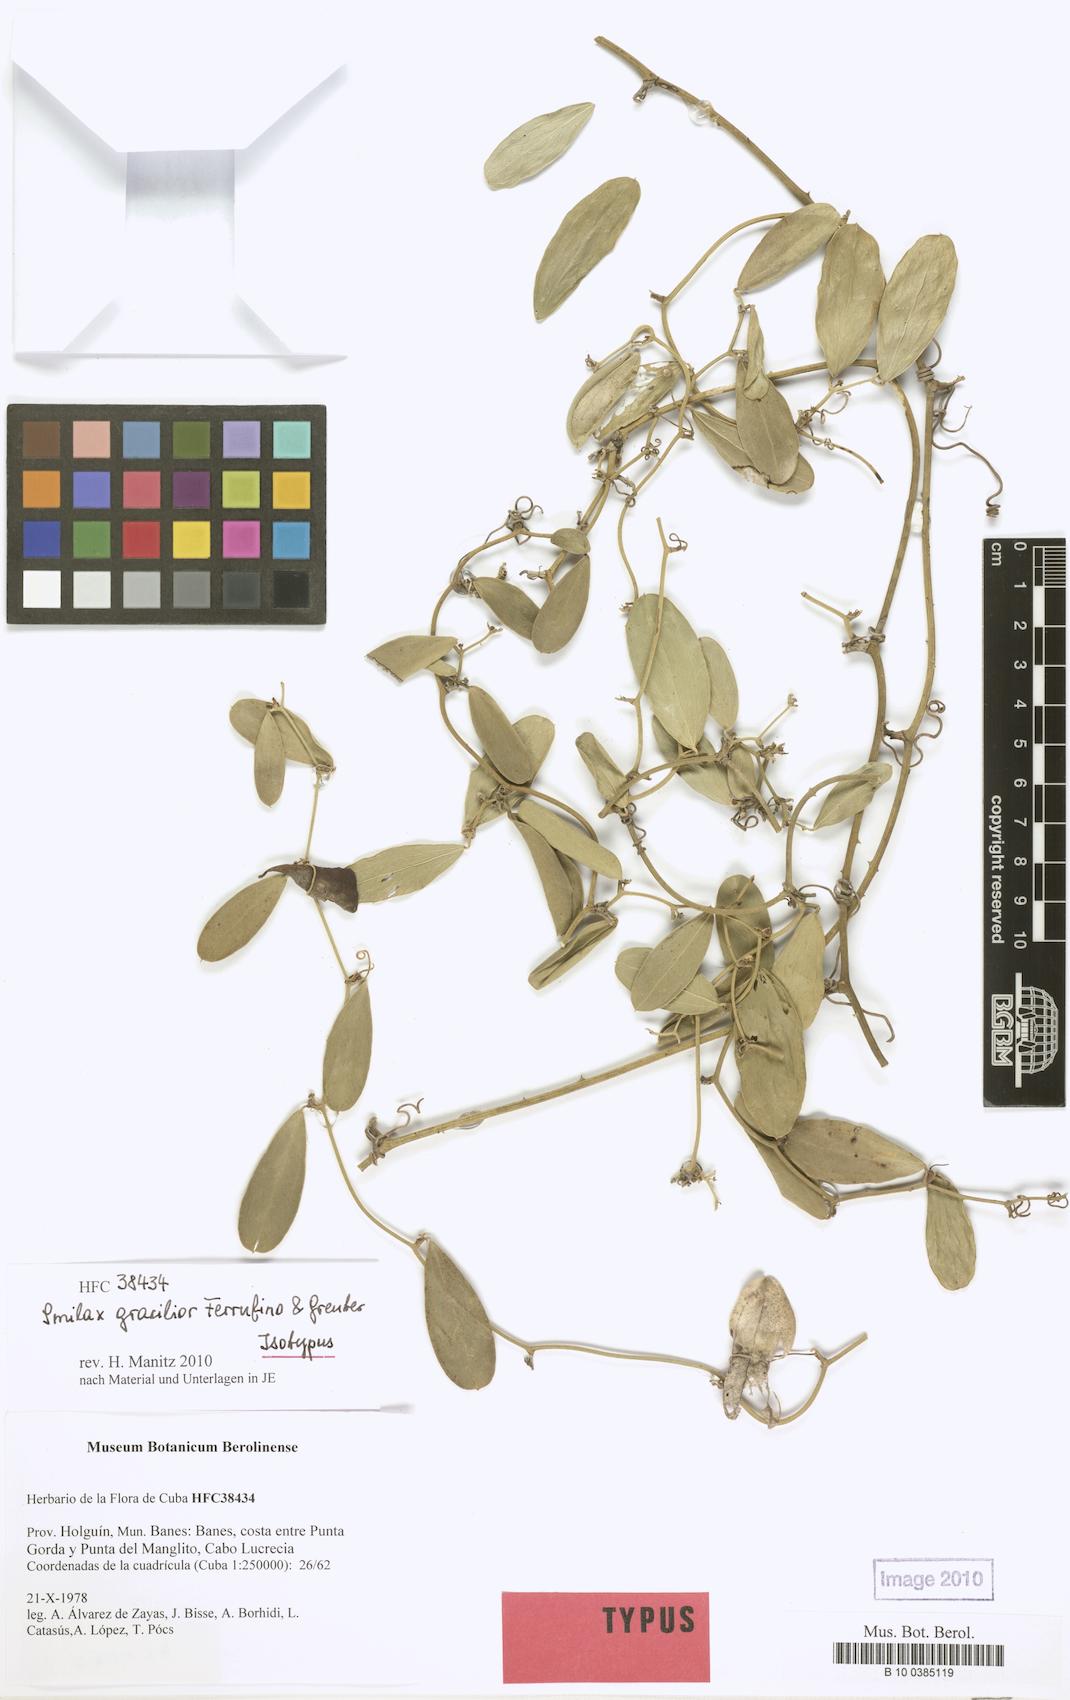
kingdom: Plantae
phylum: Tracheophyta
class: Liliopsida
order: Liliales
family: Smilacaceae
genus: Smilax
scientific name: Smilax gracilior
